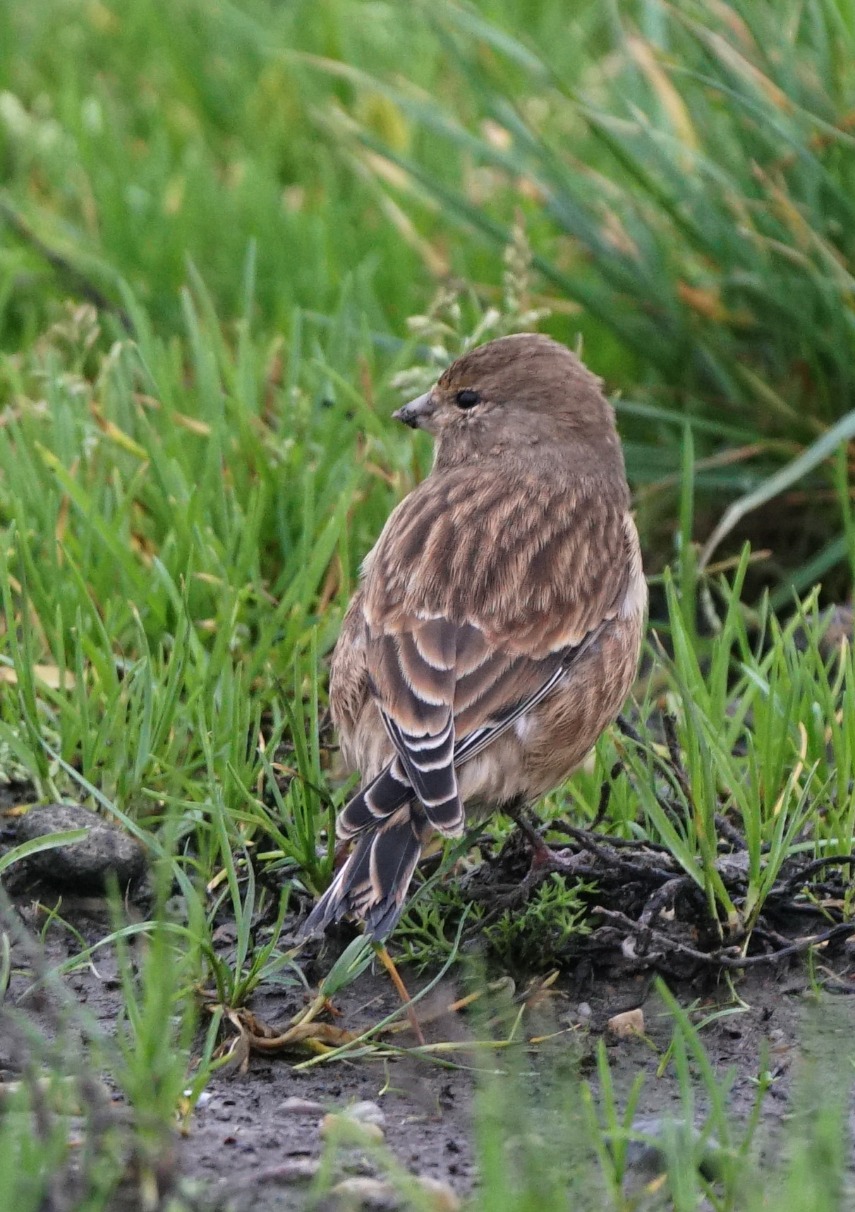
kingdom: Animalia
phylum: Chordata
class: Aves
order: Passeriformes
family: Fringillidae
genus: Linaria
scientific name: Linaria cannabina
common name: Tornirisk
